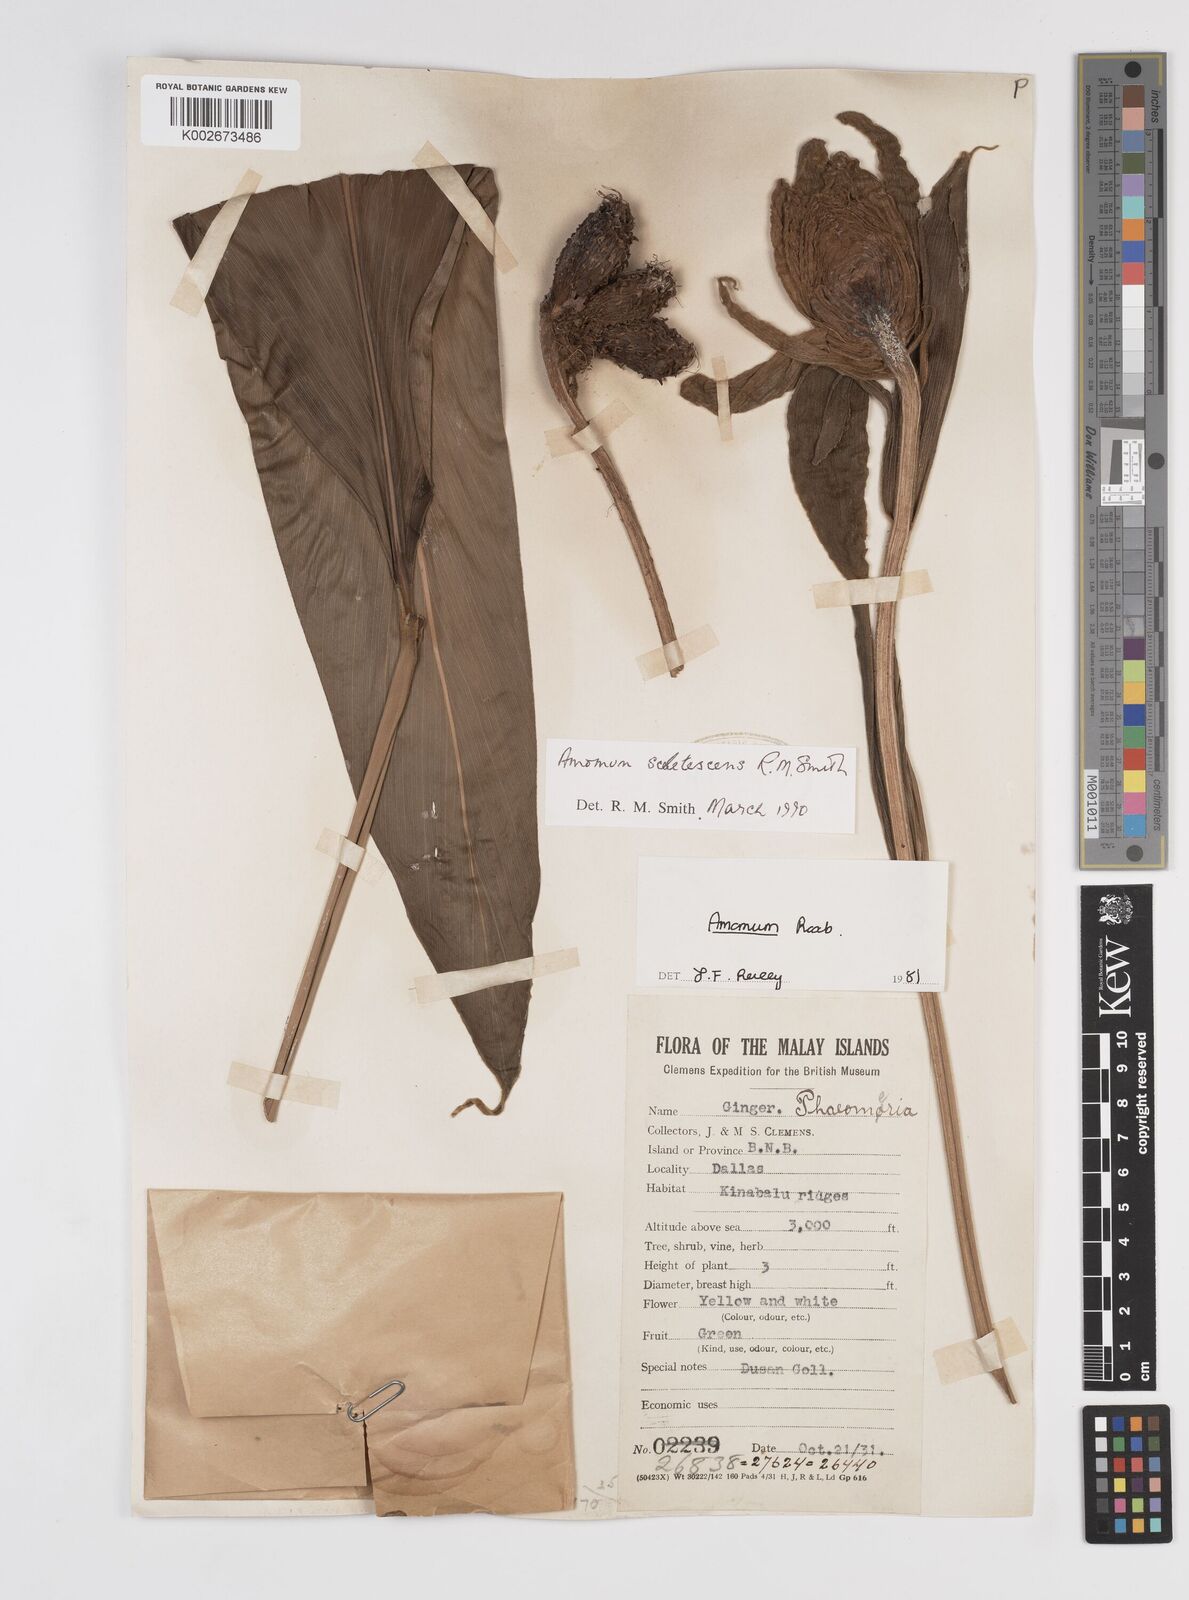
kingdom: Plantae
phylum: Tracheophyta
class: Liliopsida
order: Zingiberales
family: Zingiberaceae
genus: Meistera
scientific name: Meistera sceletescens
